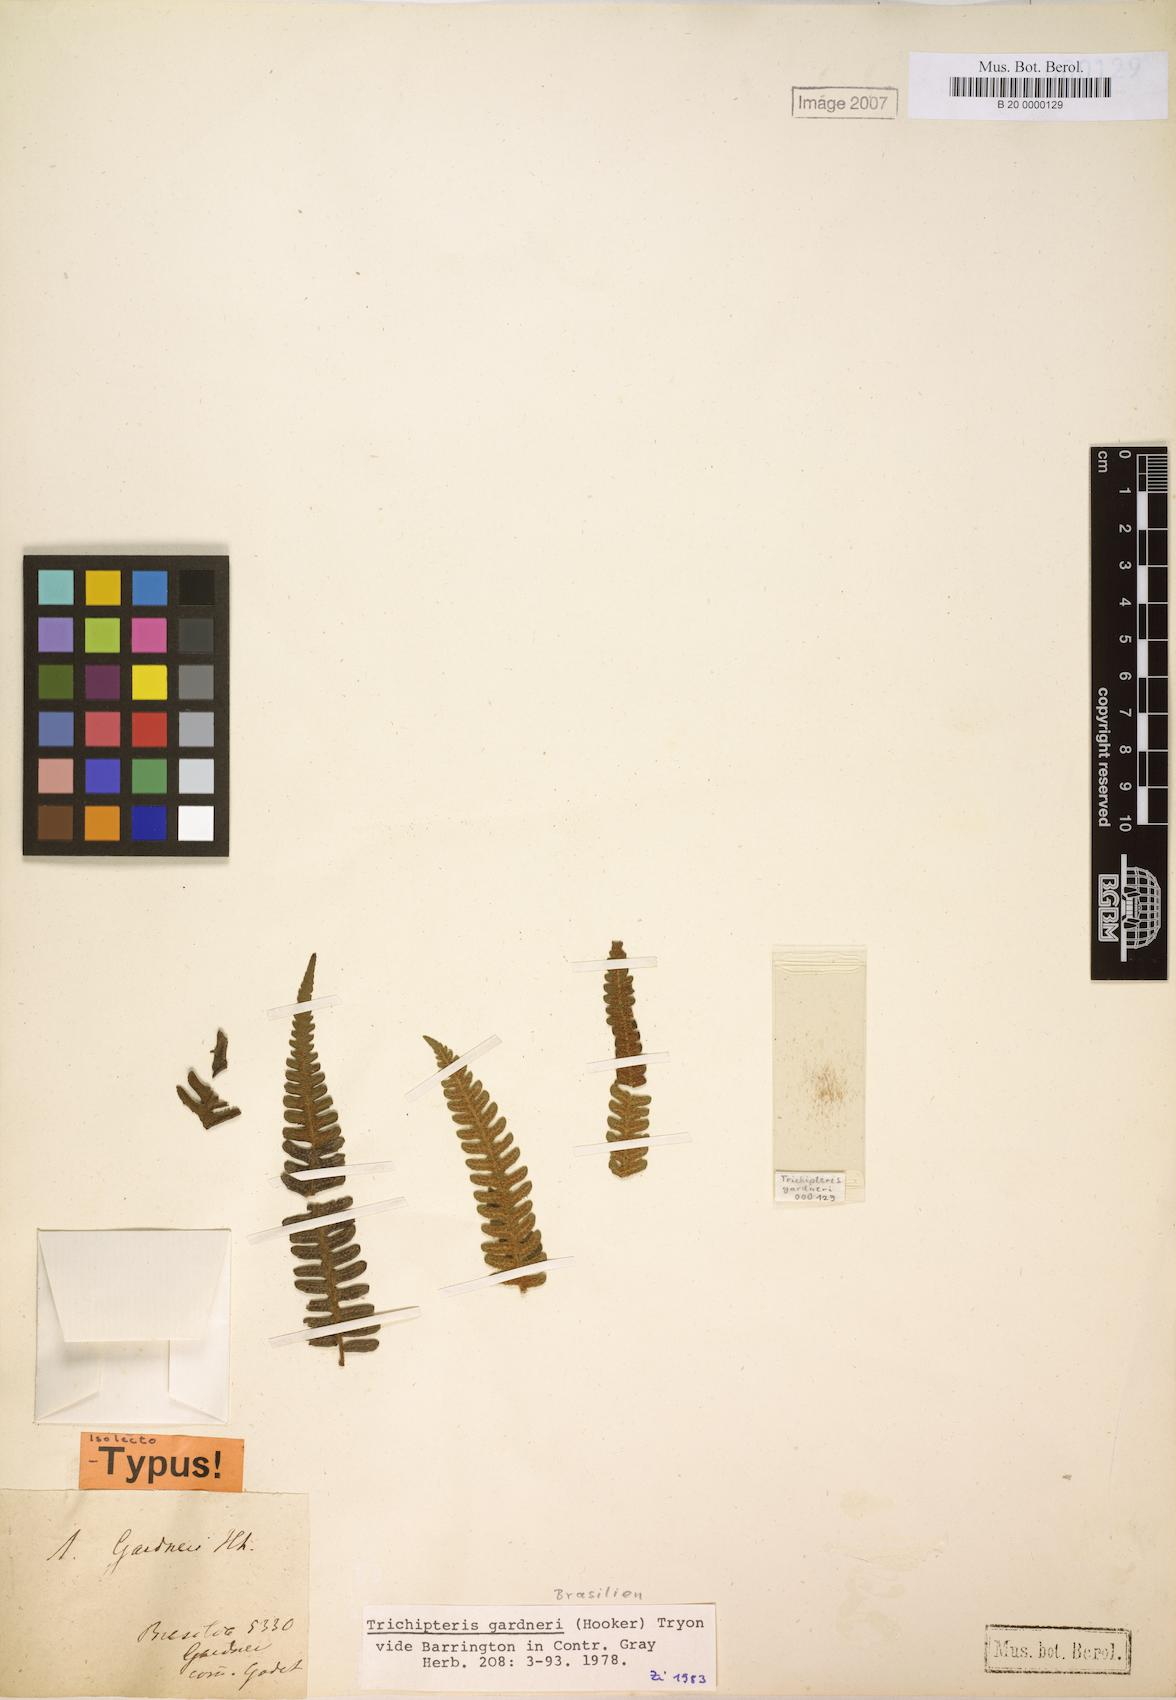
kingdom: Plantae
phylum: Tracheophyta
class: Polypodiopsida
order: Cyatheales
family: Cyatheaceae
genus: Cyathea
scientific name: Cyathea mexiae
